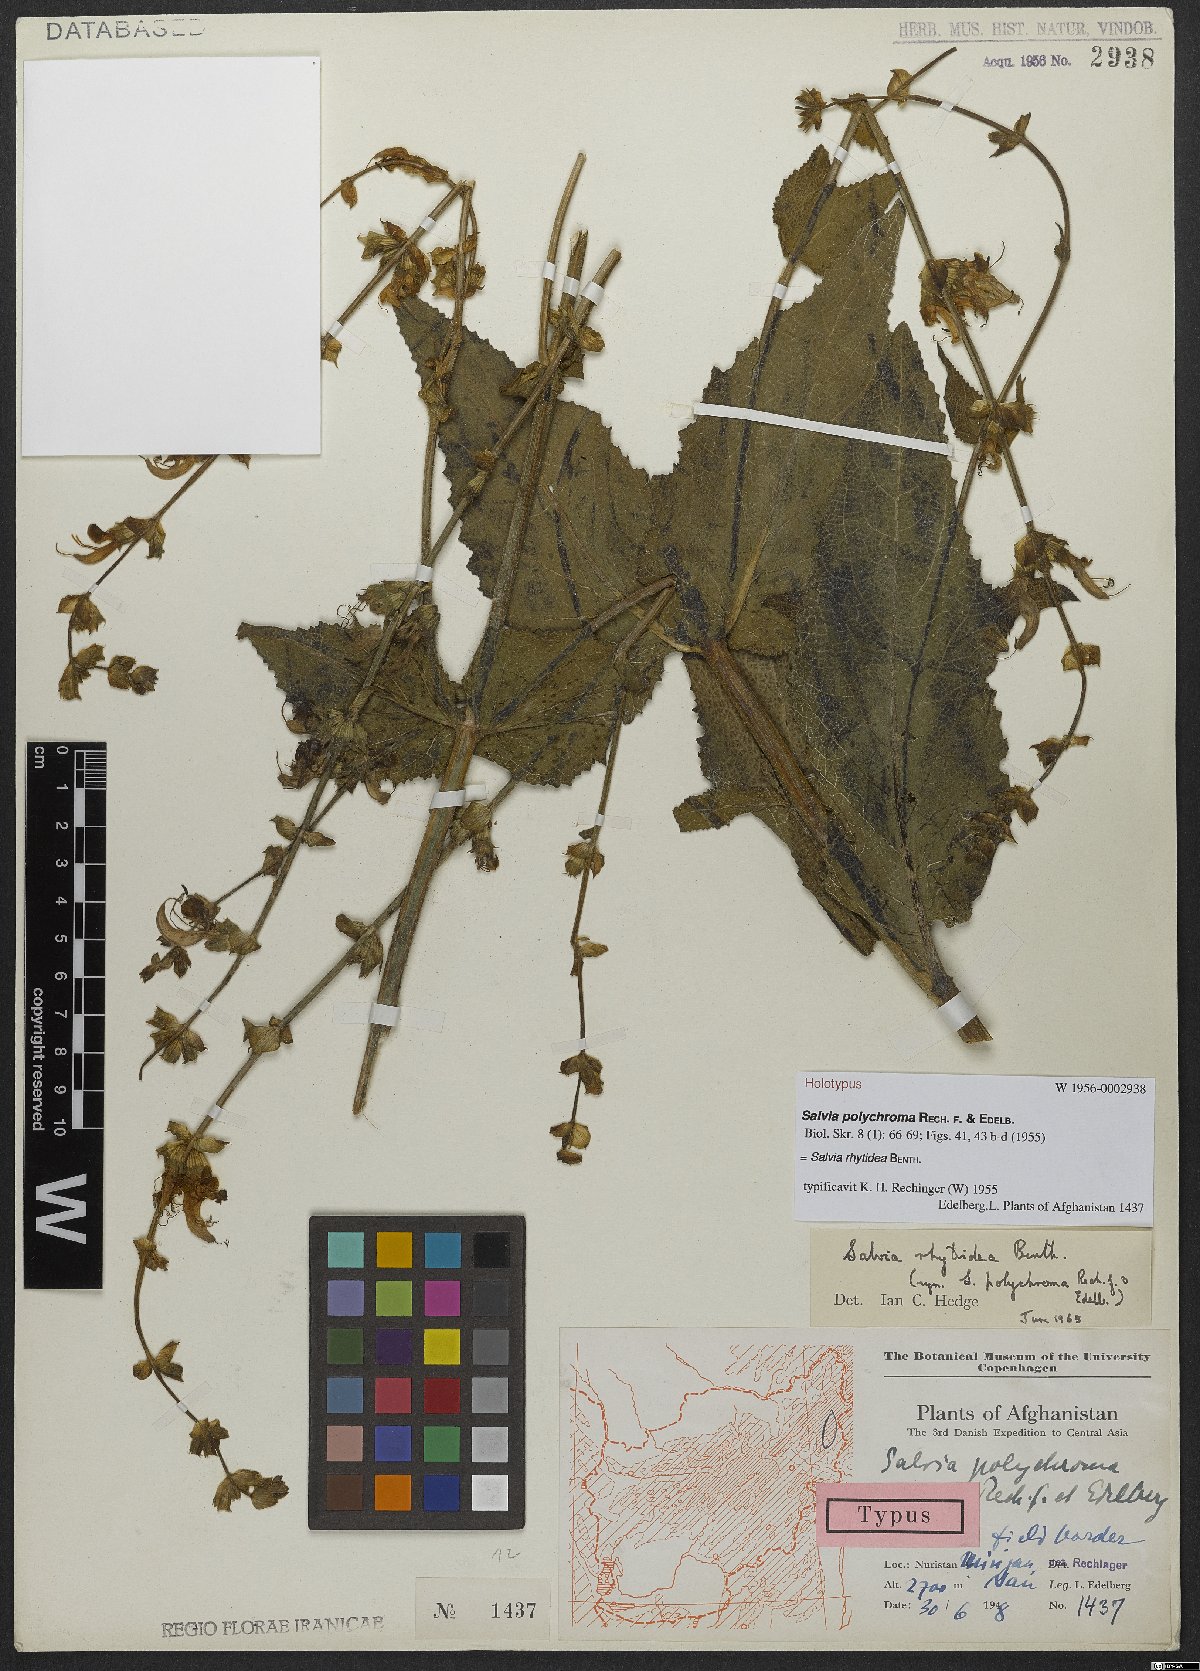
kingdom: Plantae
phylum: Tracheophyta
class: Magnoliopsida
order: Lamiales
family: Lamiaceae
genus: Salvia
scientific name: Salvia rhytidea
